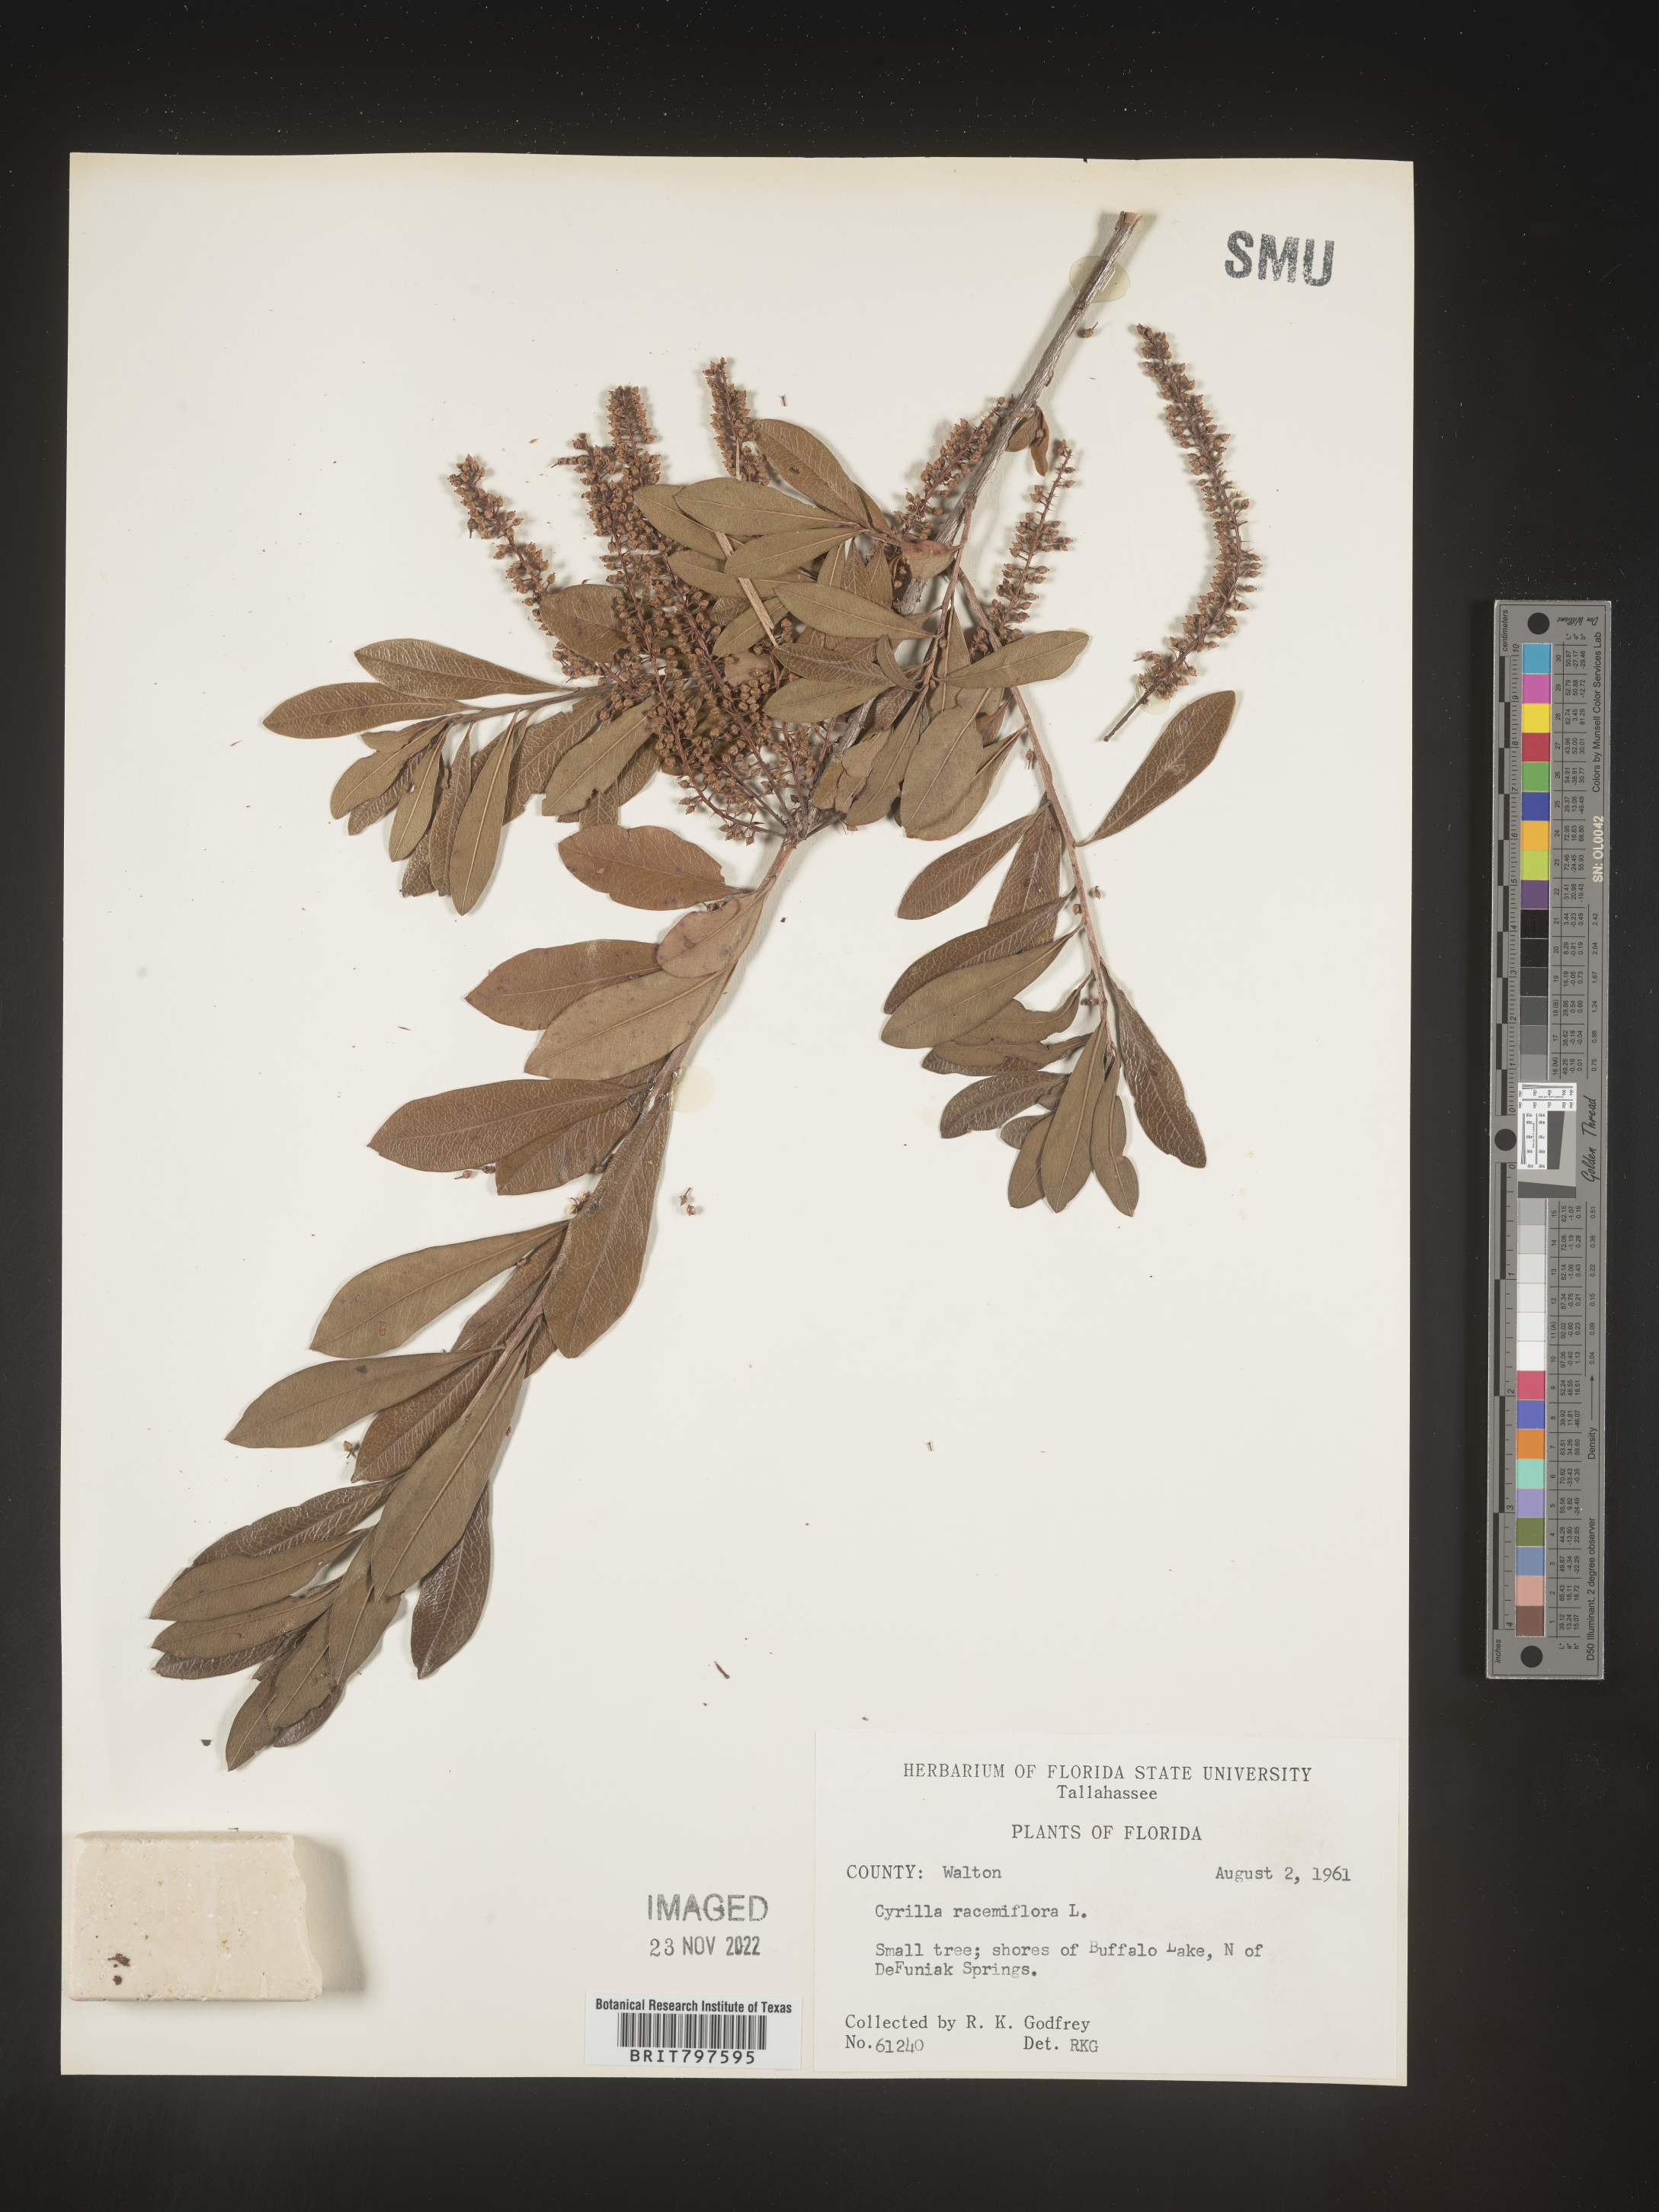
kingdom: Plantae
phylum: Tracheophyta
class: Magnoliopsida
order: Ericales
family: Cyrillaceae
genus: Cyrilla
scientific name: Cyrilla racemiflora
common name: Black titi
